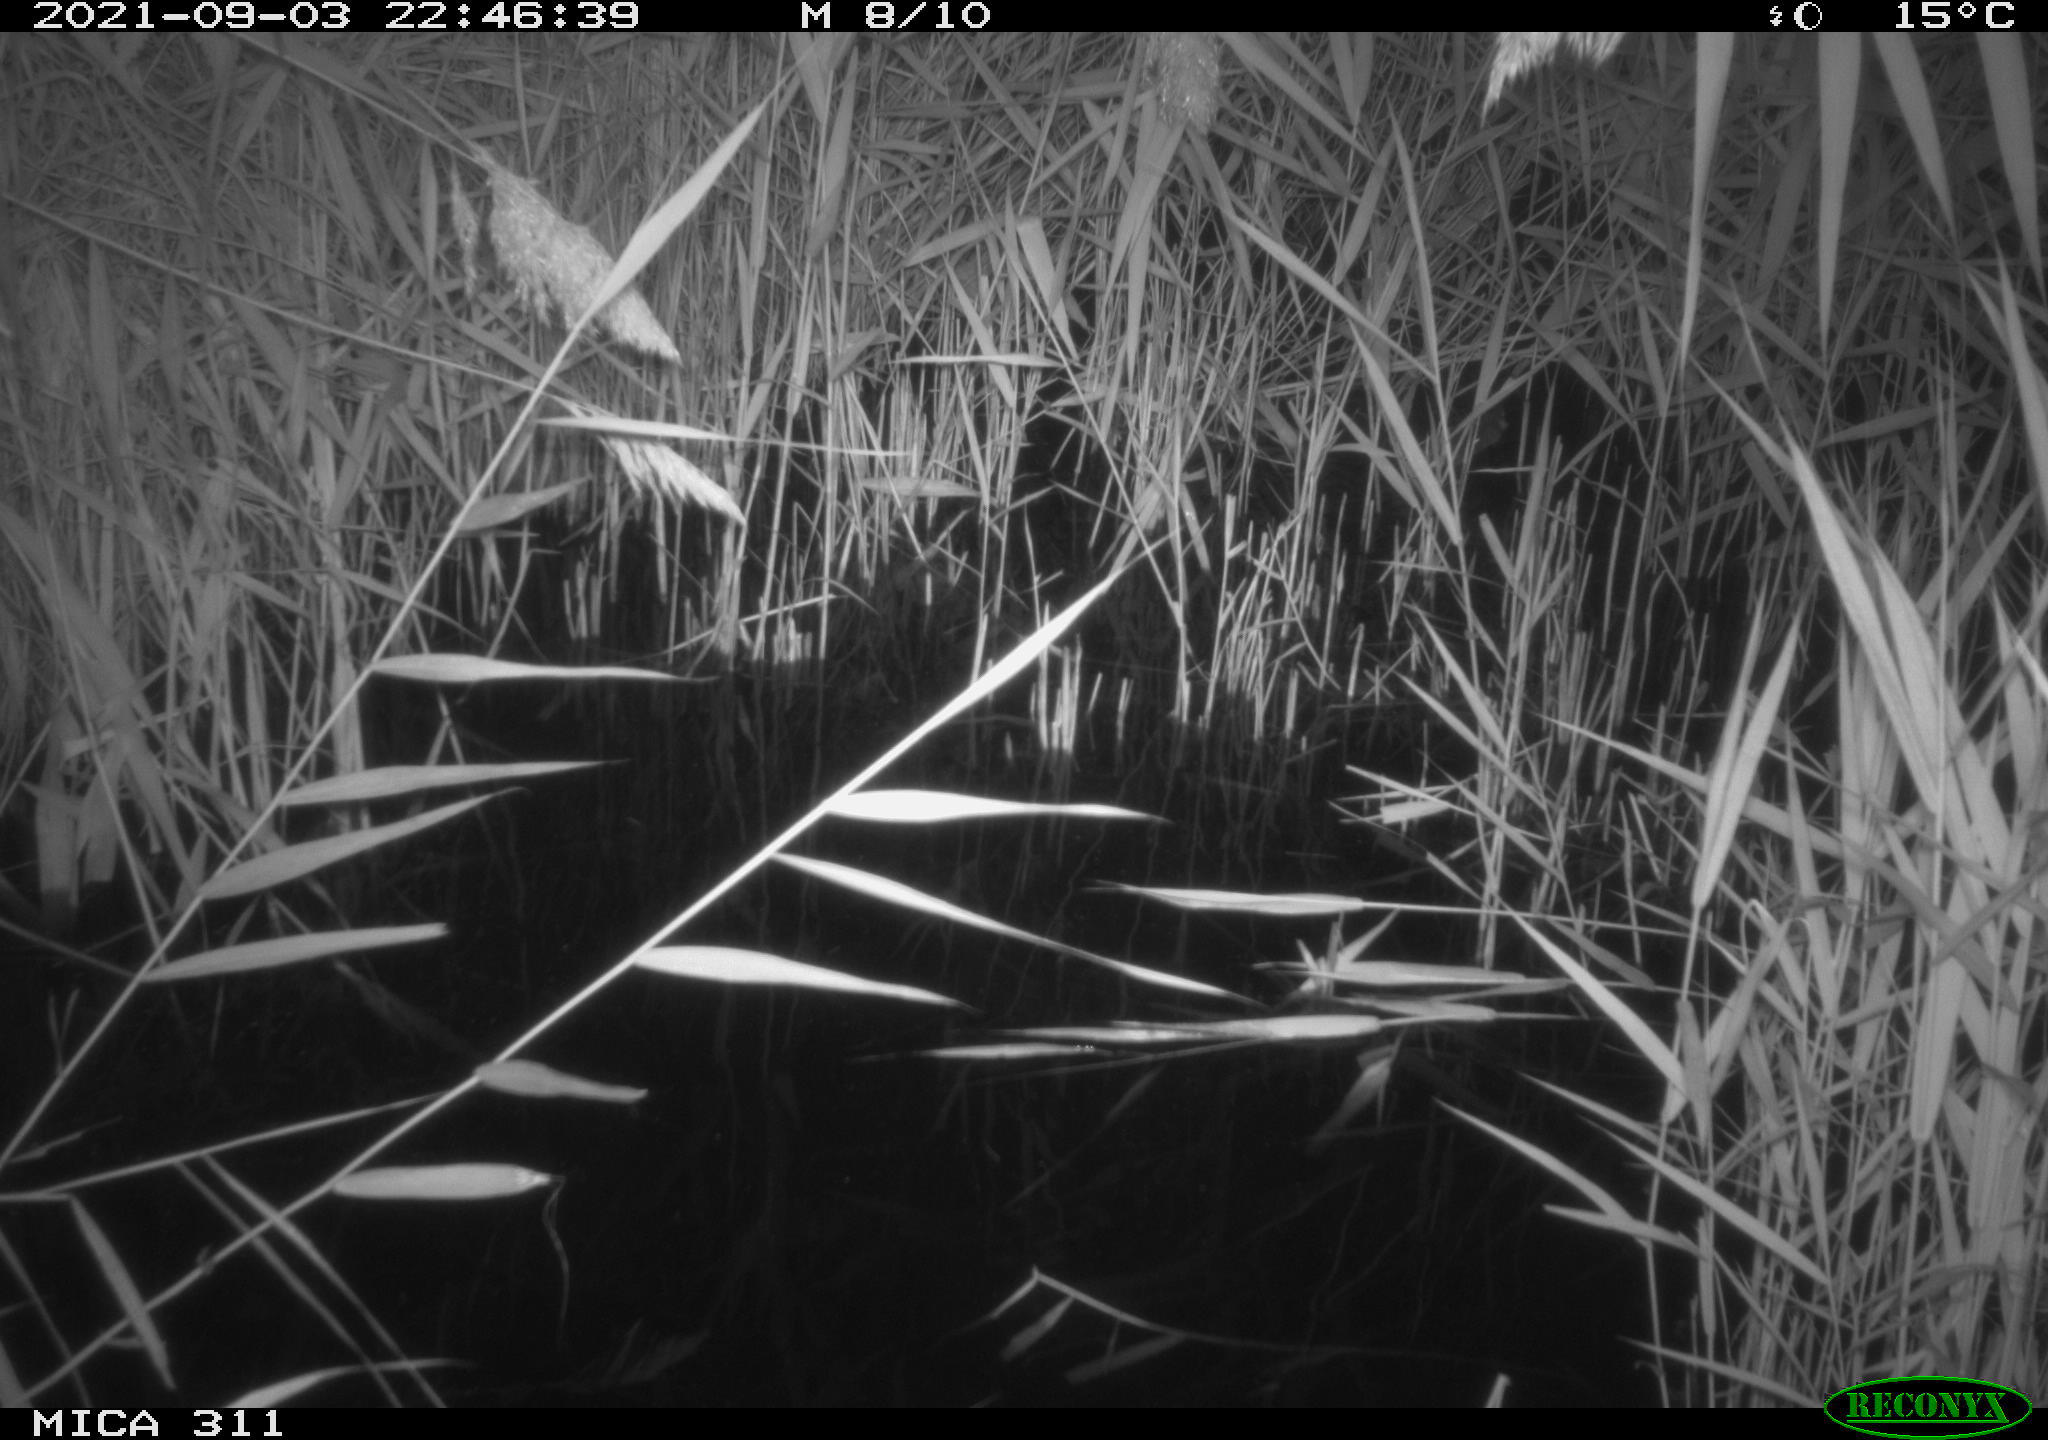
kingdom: Animalia
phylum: Chordata
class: Mammalia
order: Rodentia
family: Muridae
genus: Rattus
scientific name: Rattus norvegicus
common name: Brown rat
